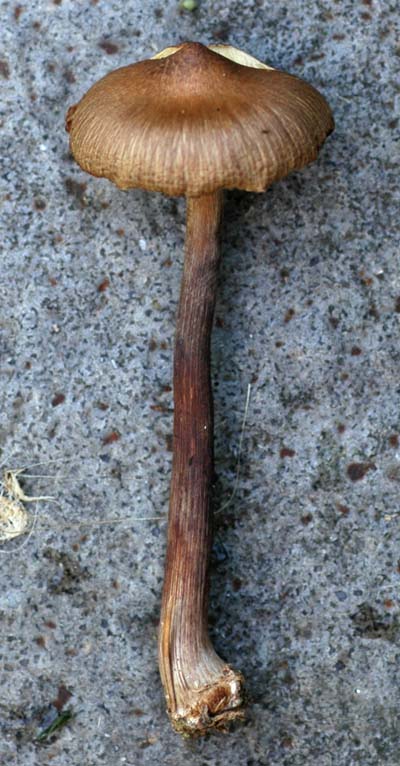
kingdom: Fungi
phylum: Basidiomycota
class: Agaricomycetes
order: Agaricales
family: Inocybaceae
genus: Inocybe
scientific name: Inocybe napipes
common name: roeknoldet trævlhat
